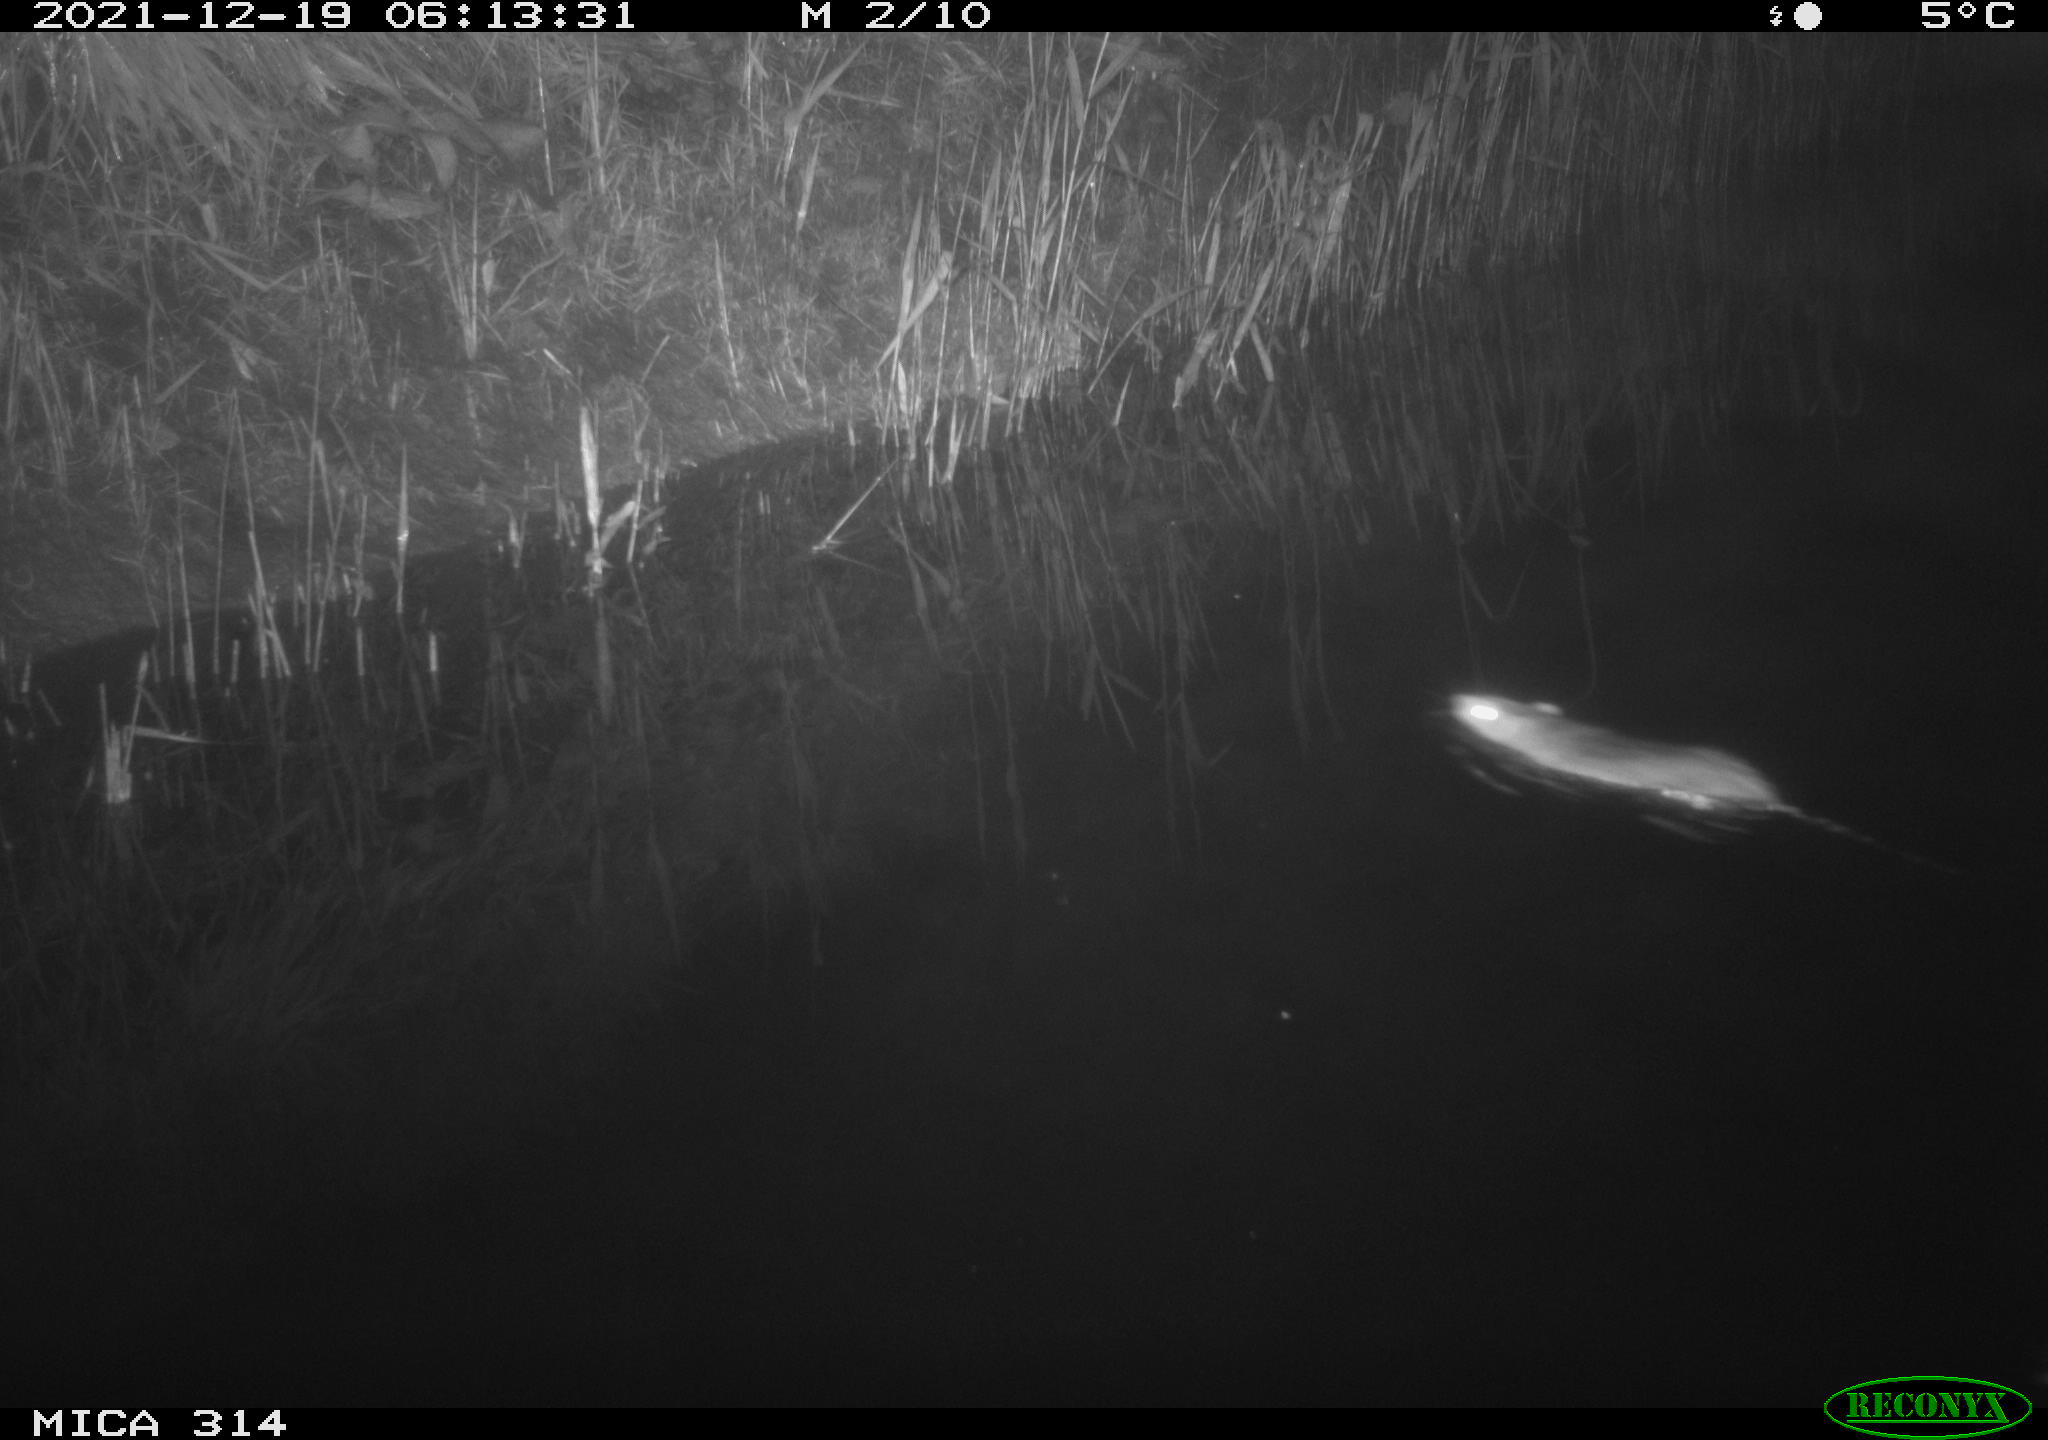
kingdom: Animalia
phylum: Chordata
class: Mammalia
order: Rodentia
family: Muridae
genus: Rattus
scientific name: Rattus norvegicus
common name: Brown rat
